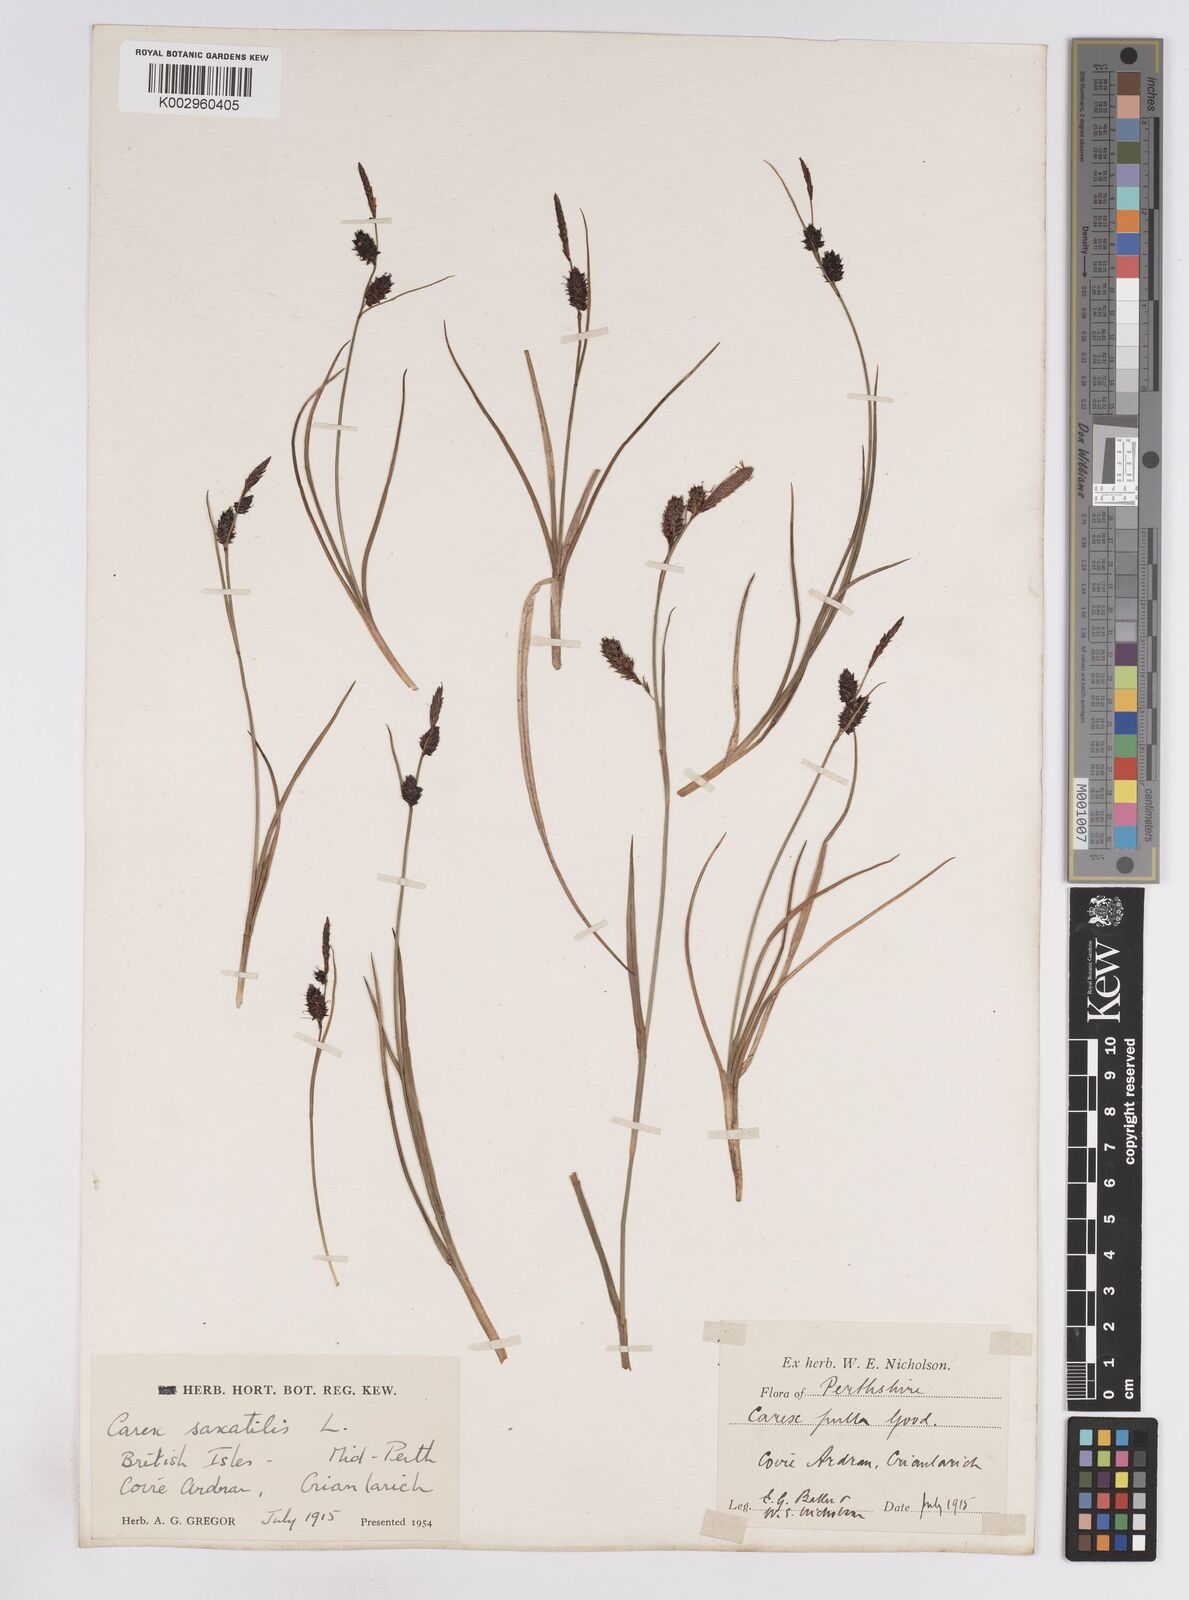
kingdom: Plantae
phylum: Tracheophyta
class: Liliopsida
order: Poales
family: Cyperaceae
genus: Carex
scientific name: Carex saxatilis
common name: Russet sedge
